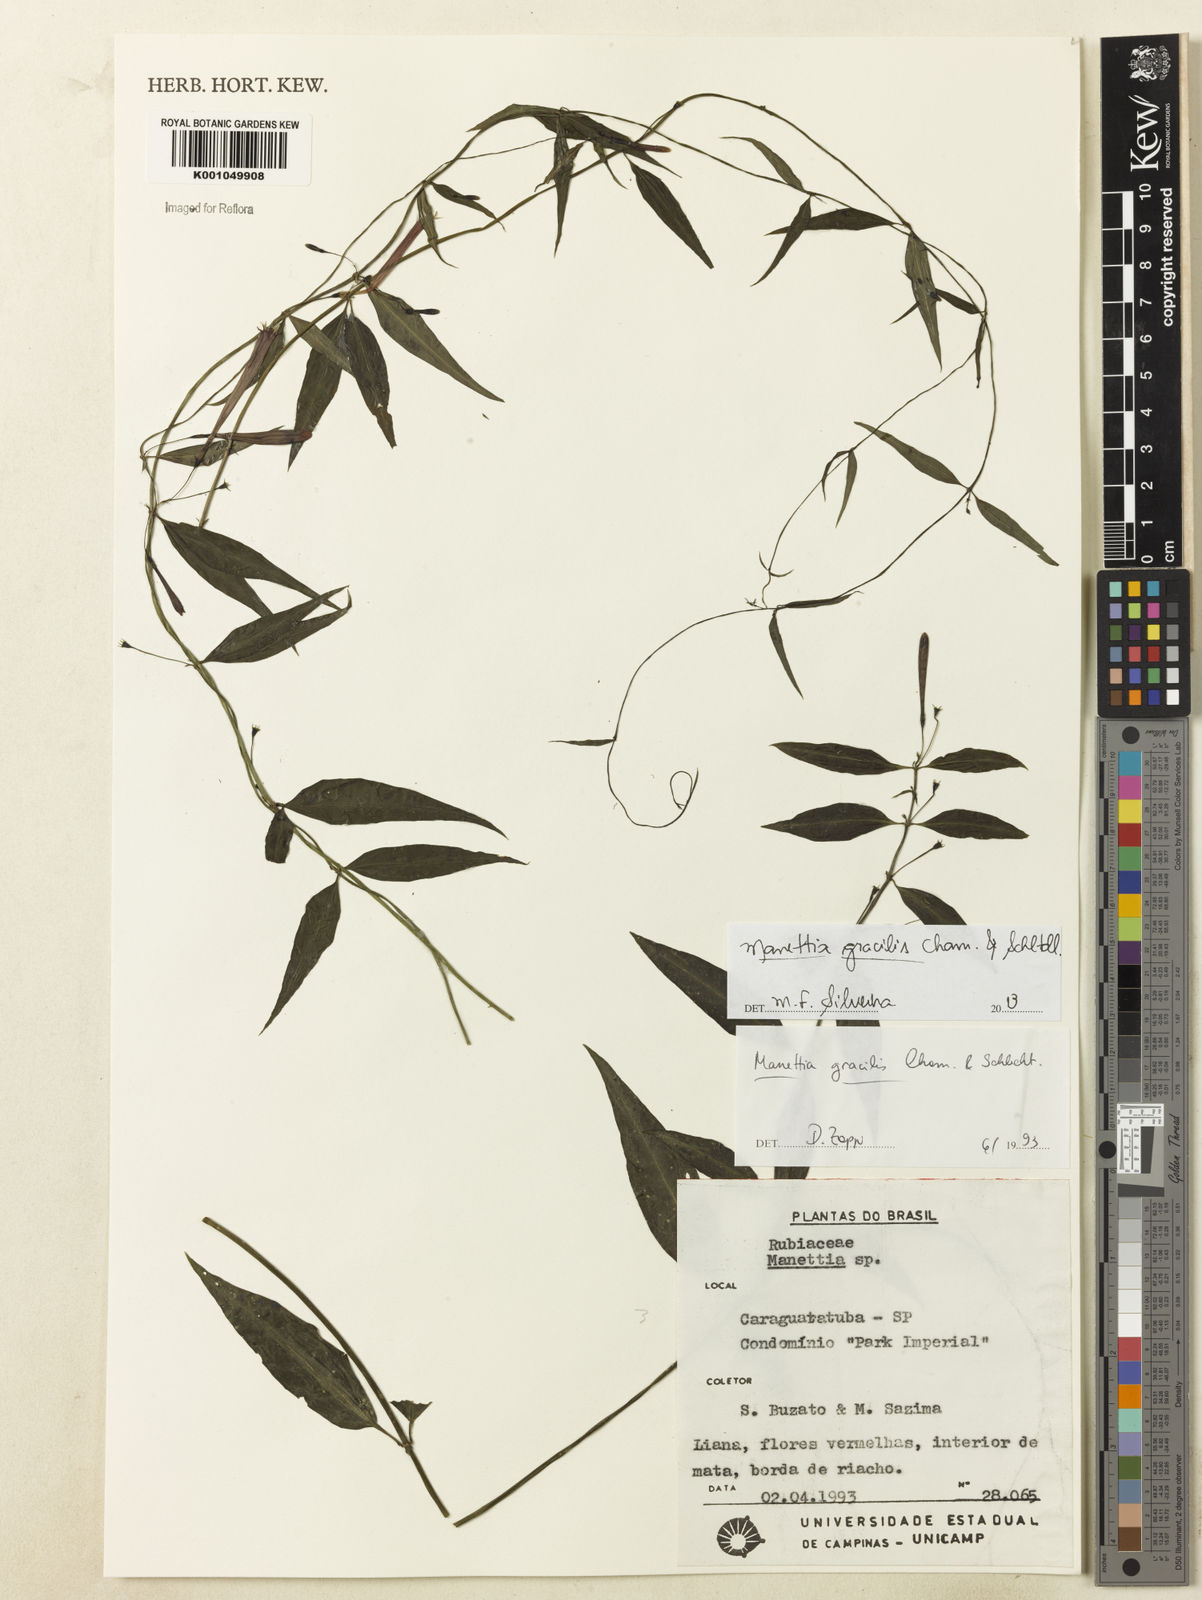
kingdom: Plantae
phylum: Tracheophyta
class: Magnoliopsida
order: Gentianales
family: Rubiaceae
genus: Manettia
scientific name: Manettia gracilis
